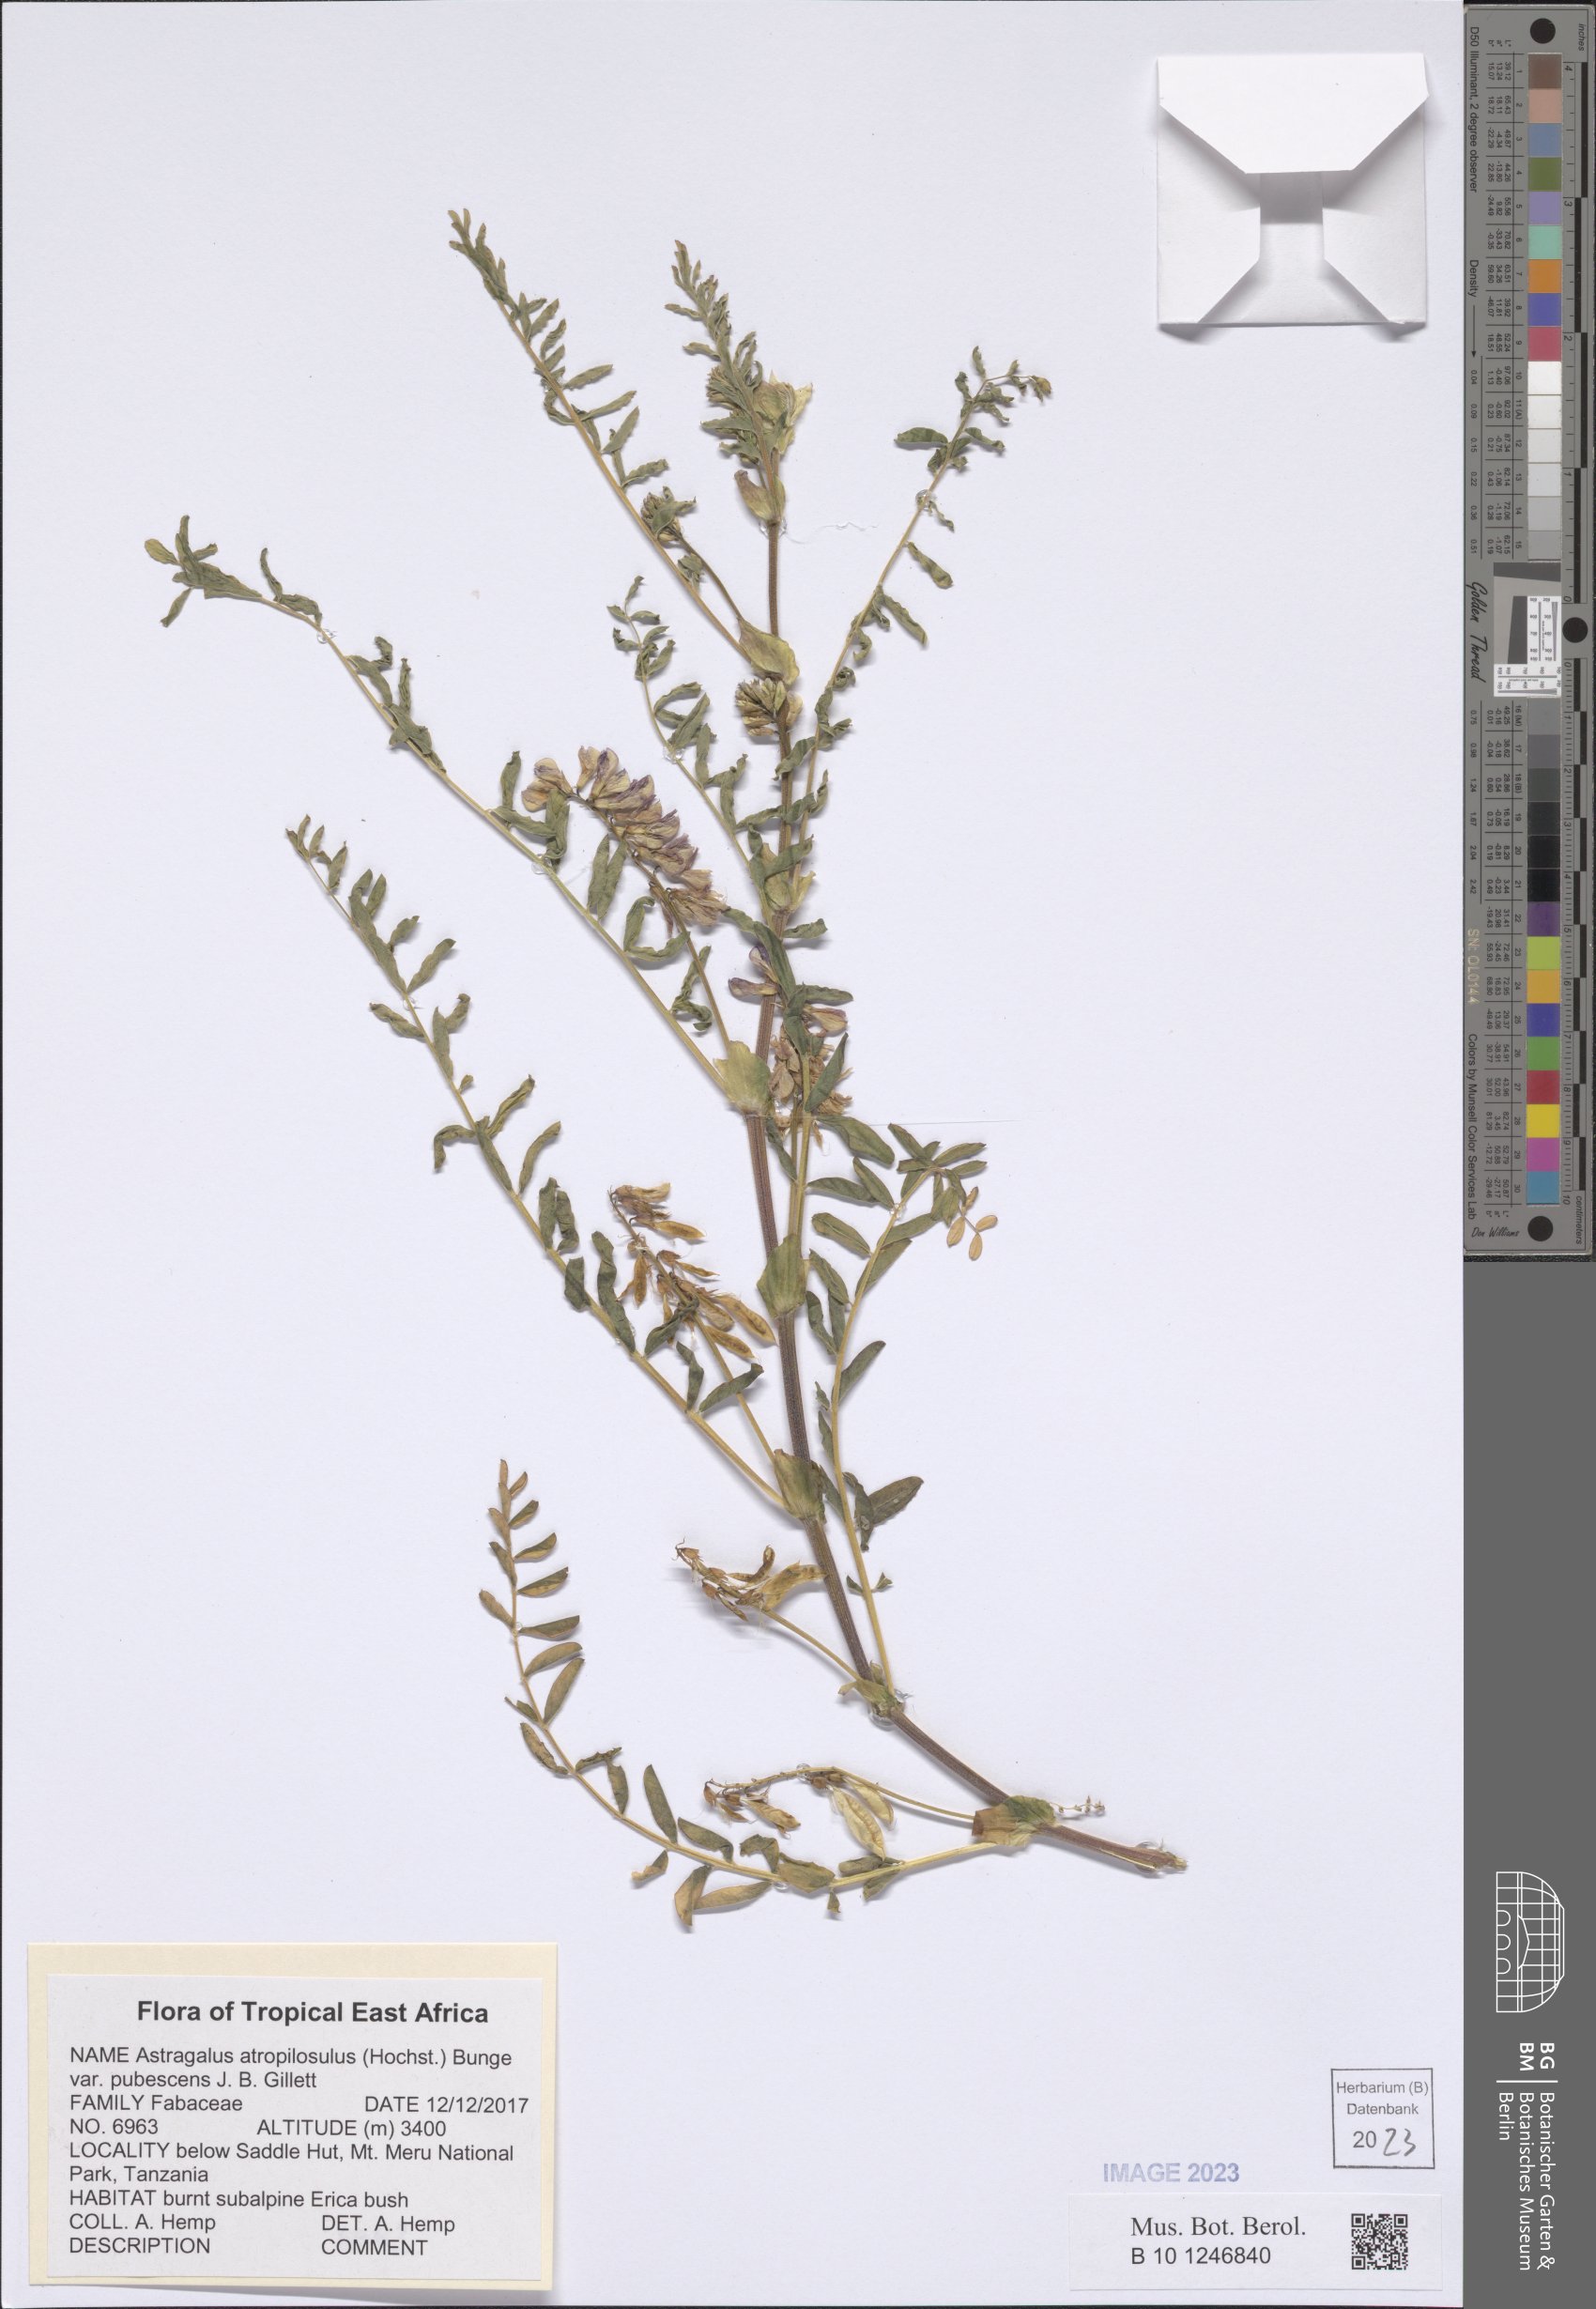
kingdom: Plantae
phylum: Tracheophyta
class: Magnoliopsida
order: Fabales
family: Fabaceae
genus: Astragalus
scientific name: Astragalus atropilosulus
